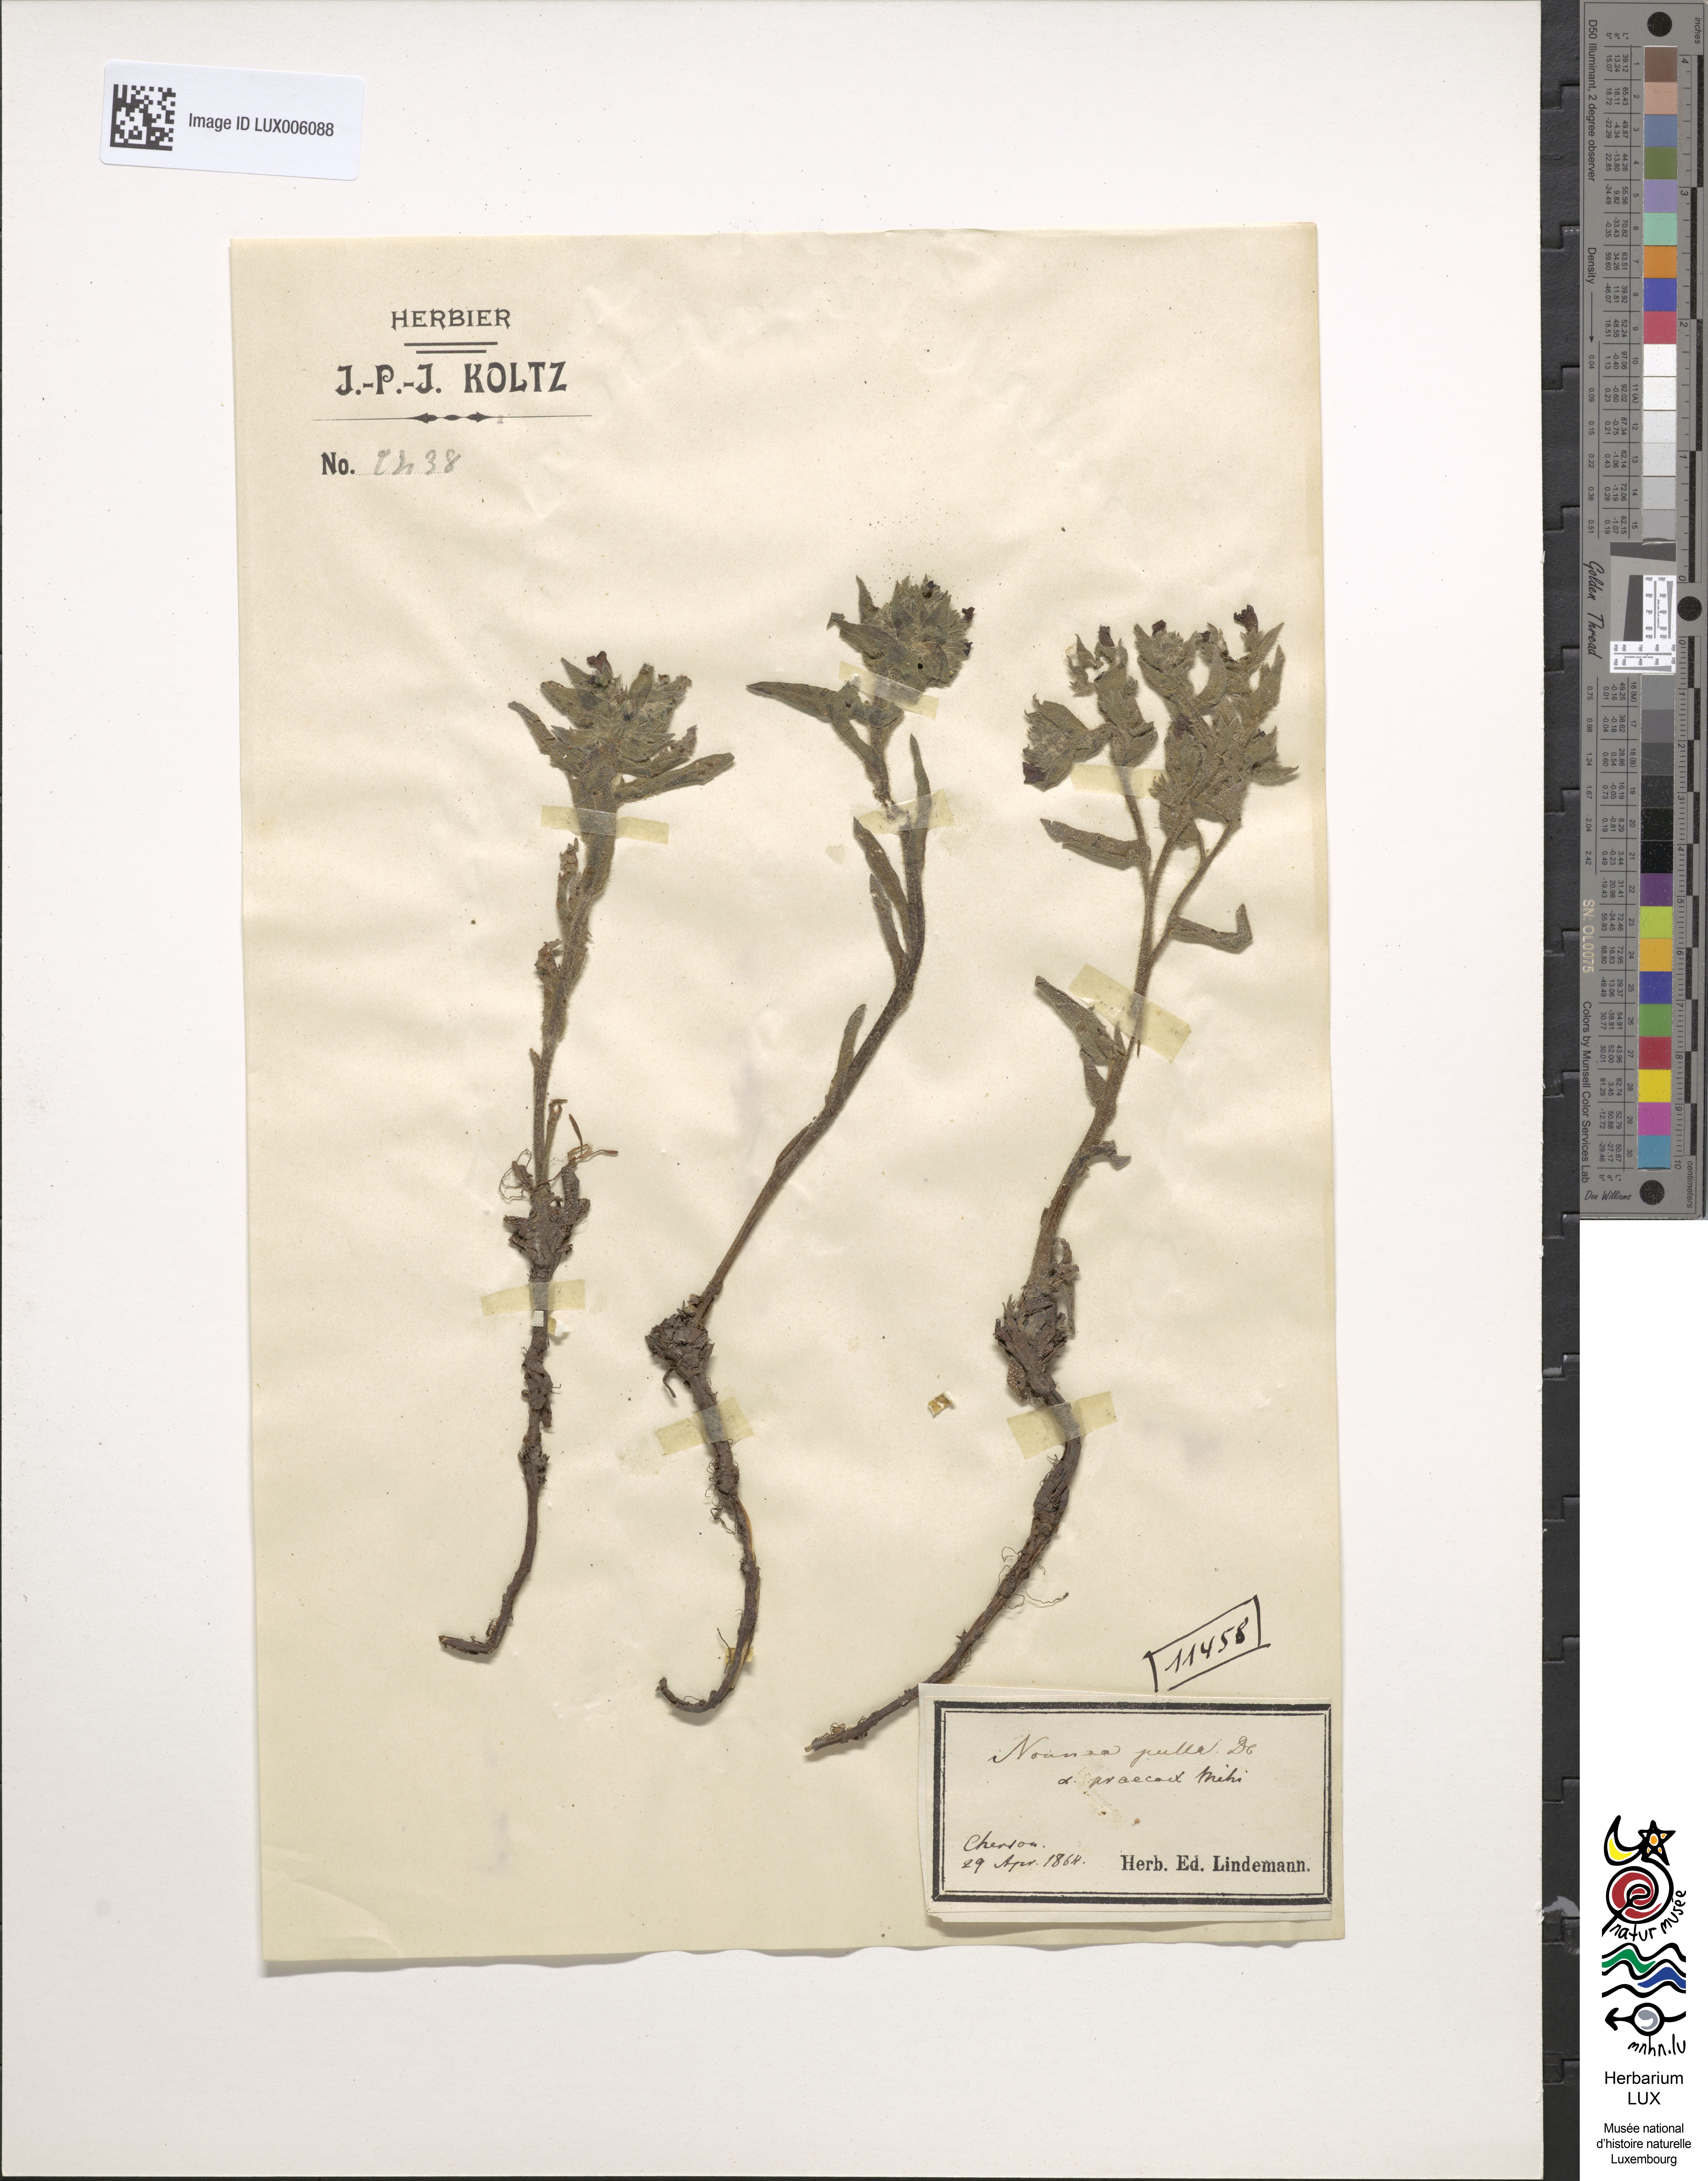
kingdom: Plantae
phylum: Tracheophyta
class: Magnoliopsida
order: Boraginales
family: Boraginaceae
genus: Nonea
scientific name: Nonea pulla
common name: Brown nonea
